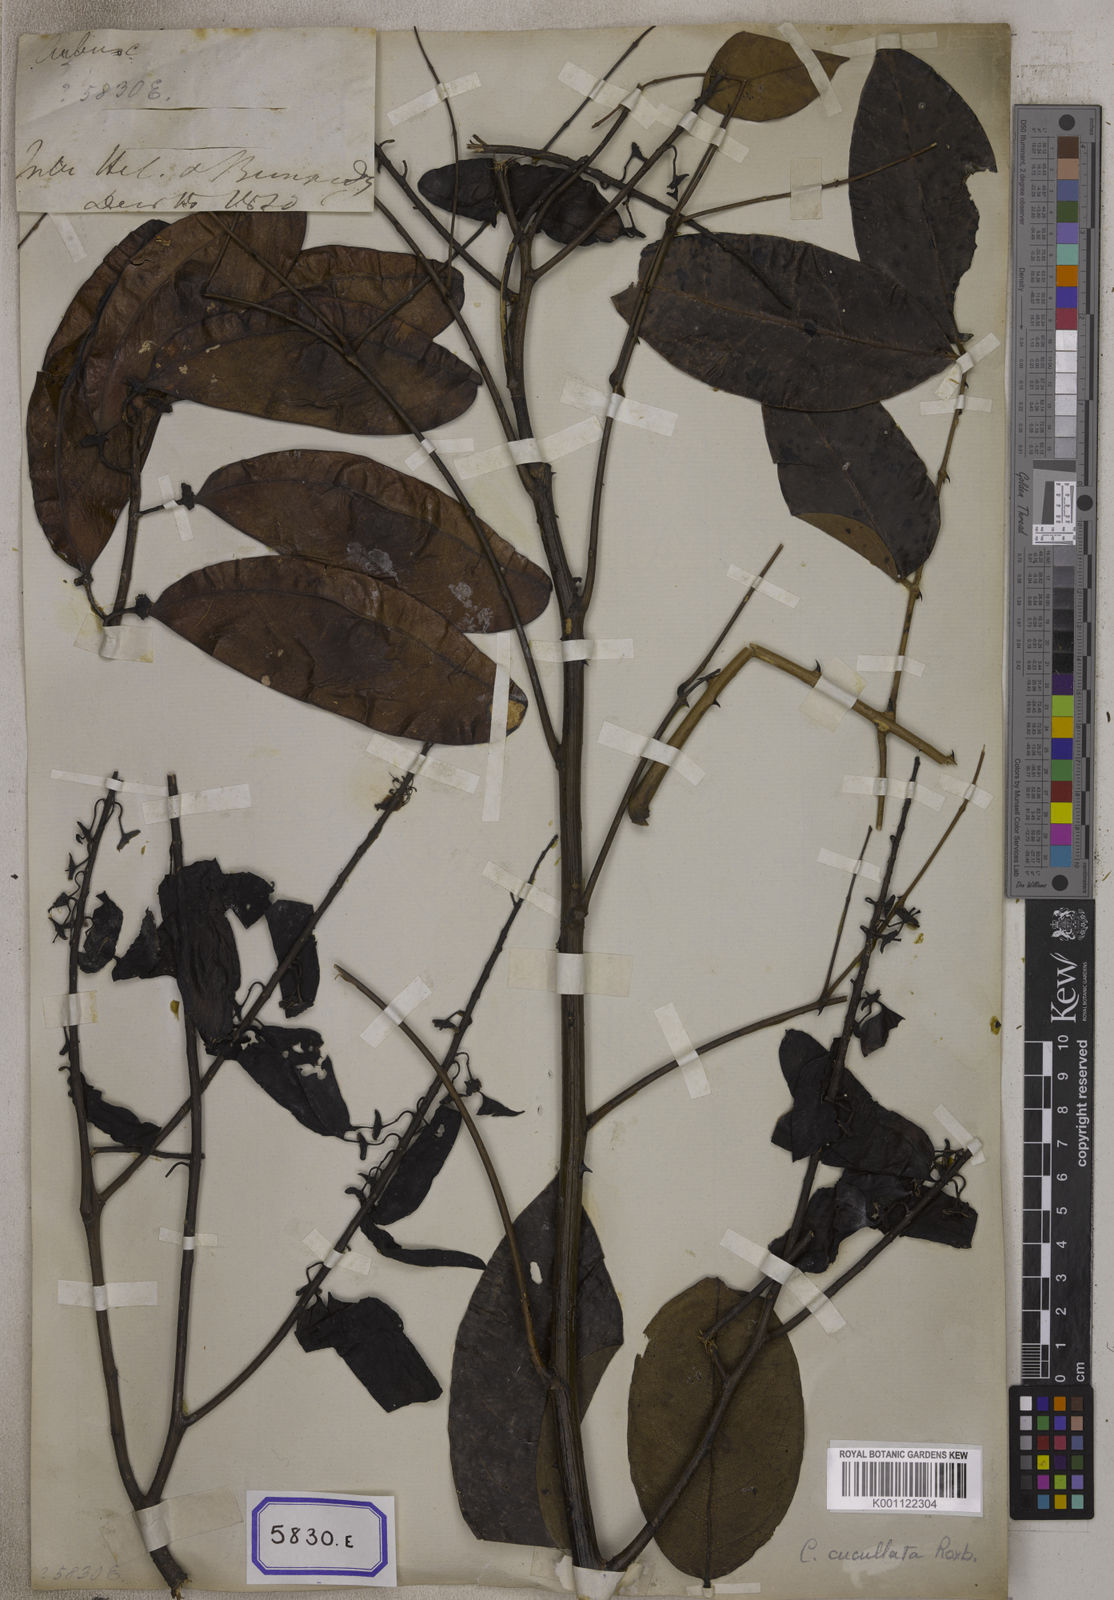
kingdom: Plantae
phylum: Tracheophyta
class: Magnoliopsida
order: Fabales
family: Fabaceae
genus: Caesalpinia
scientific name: Caesalpinia
